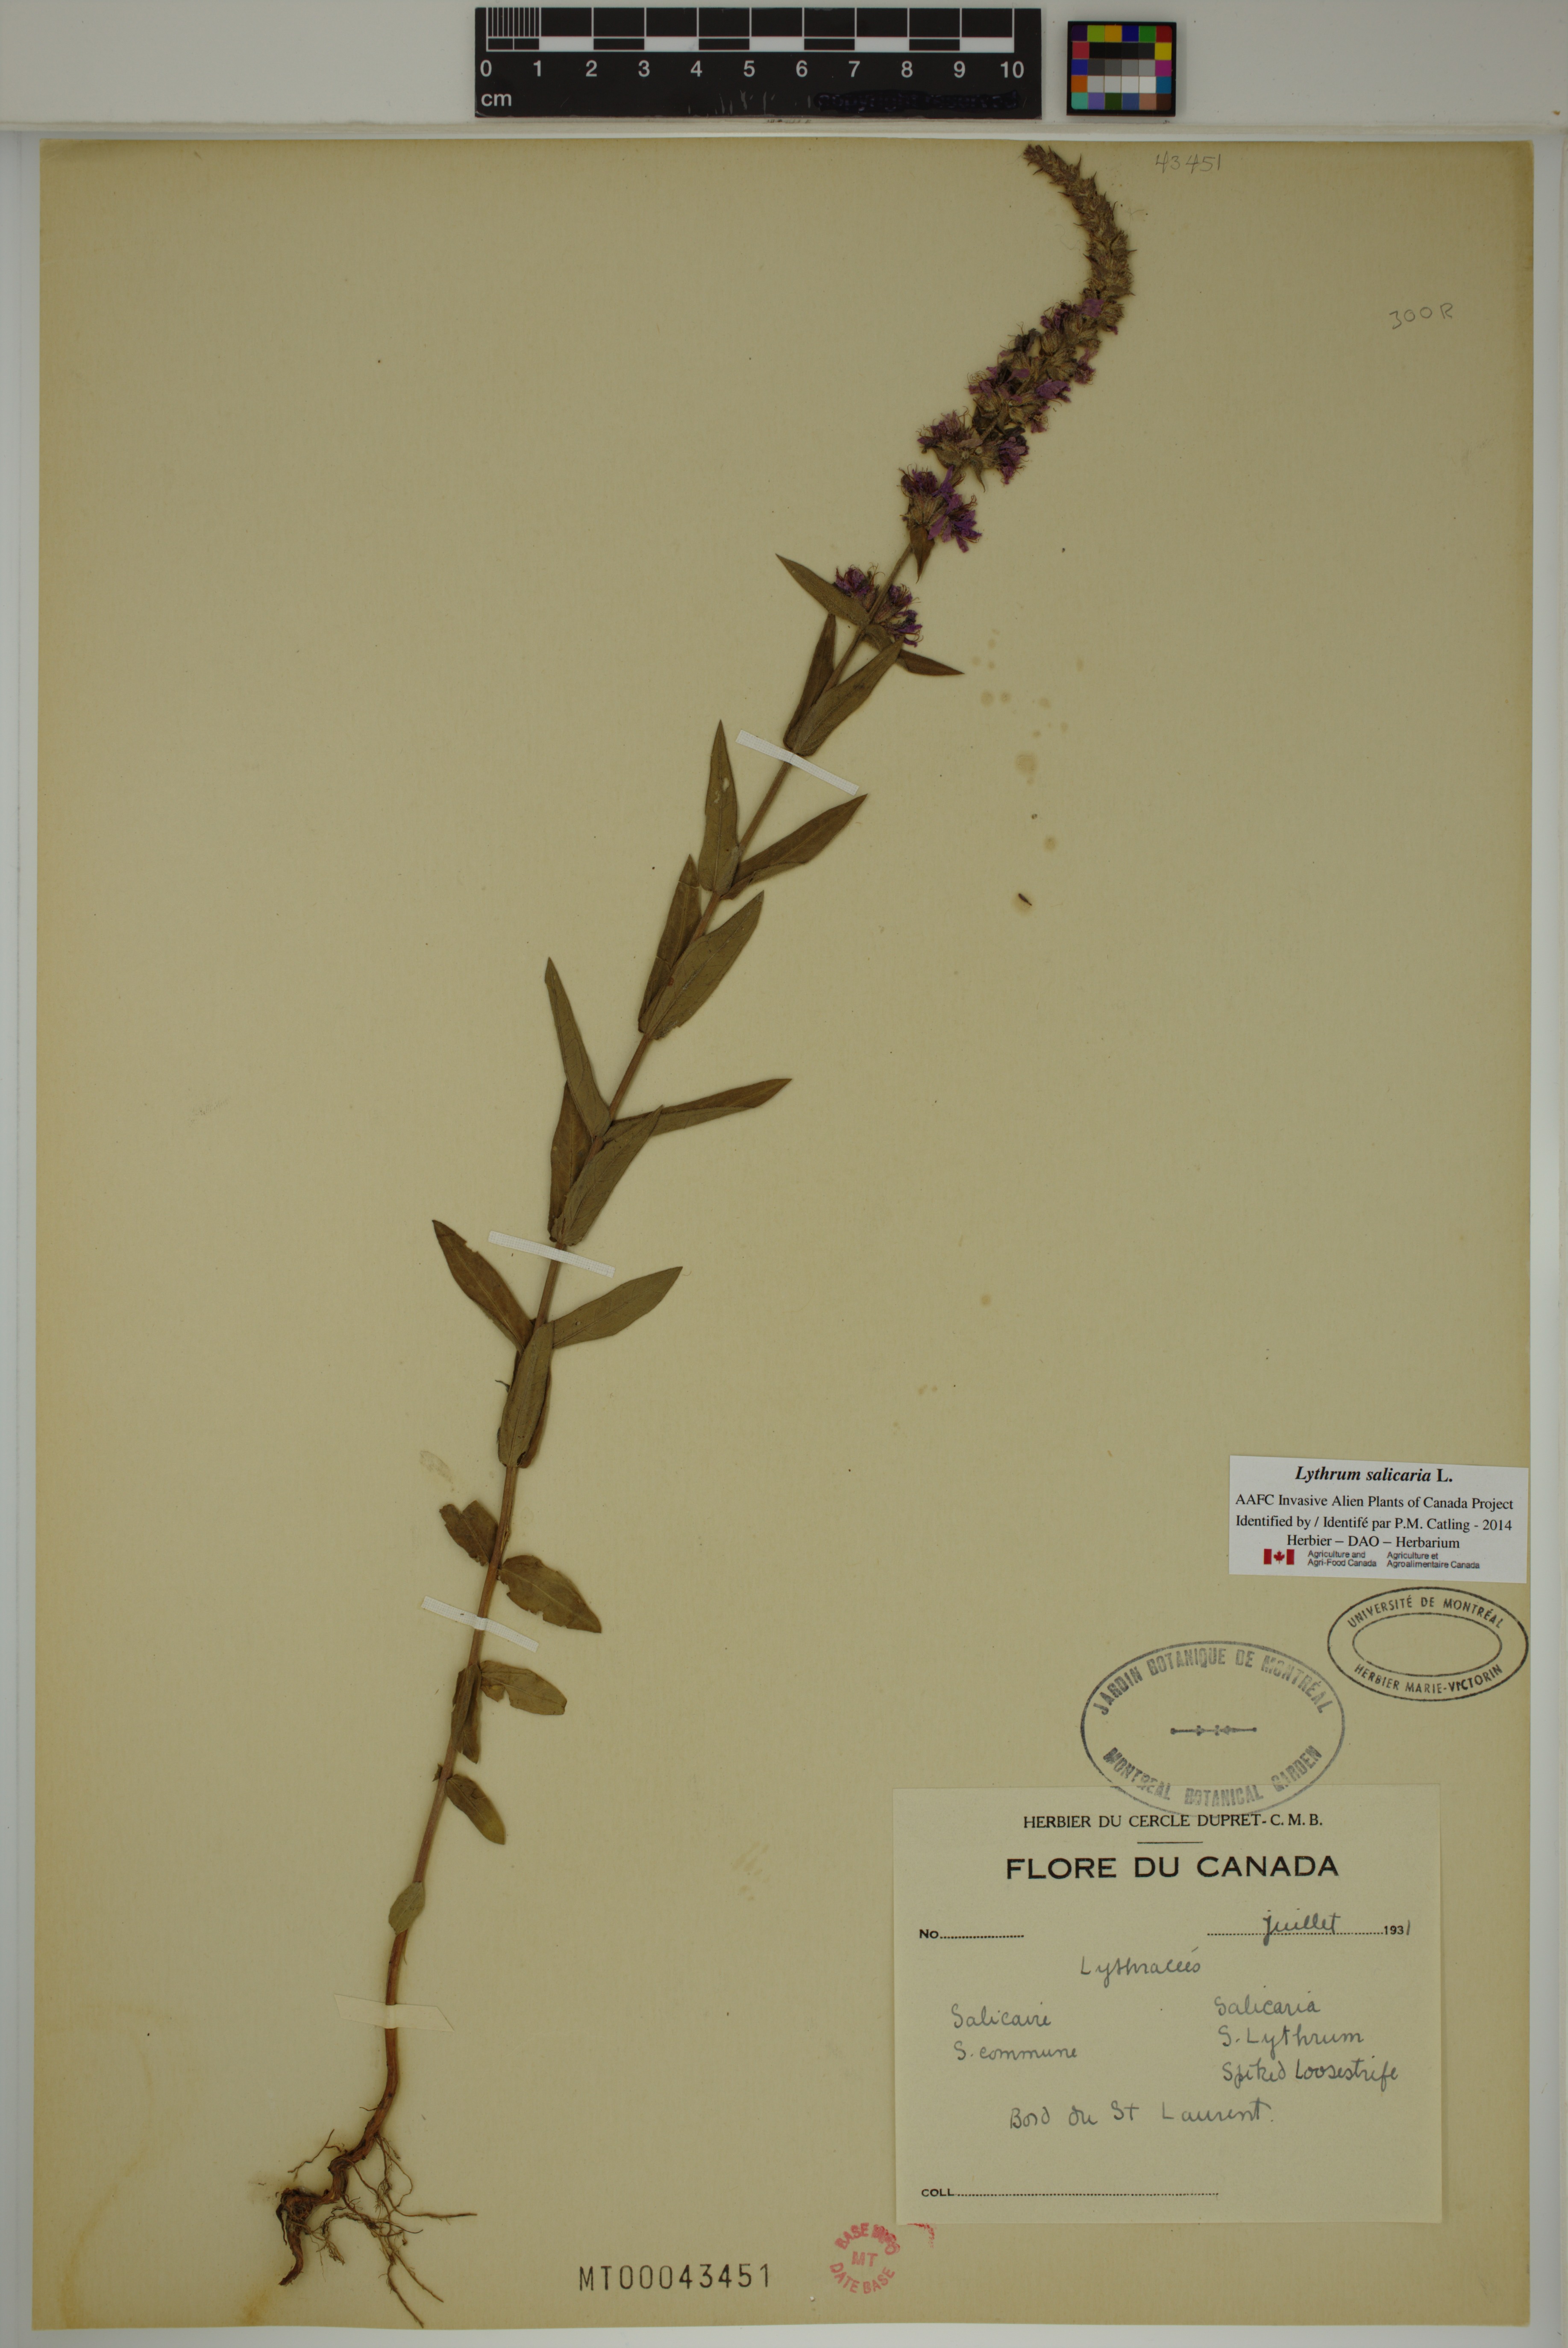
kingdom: Plantae
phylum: Tracheophyta
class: Magnoliopsida
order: Myrtales
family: Lythraceae
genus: Lythrum
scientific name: Lythrum salicaria
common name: Purple loosestrife
